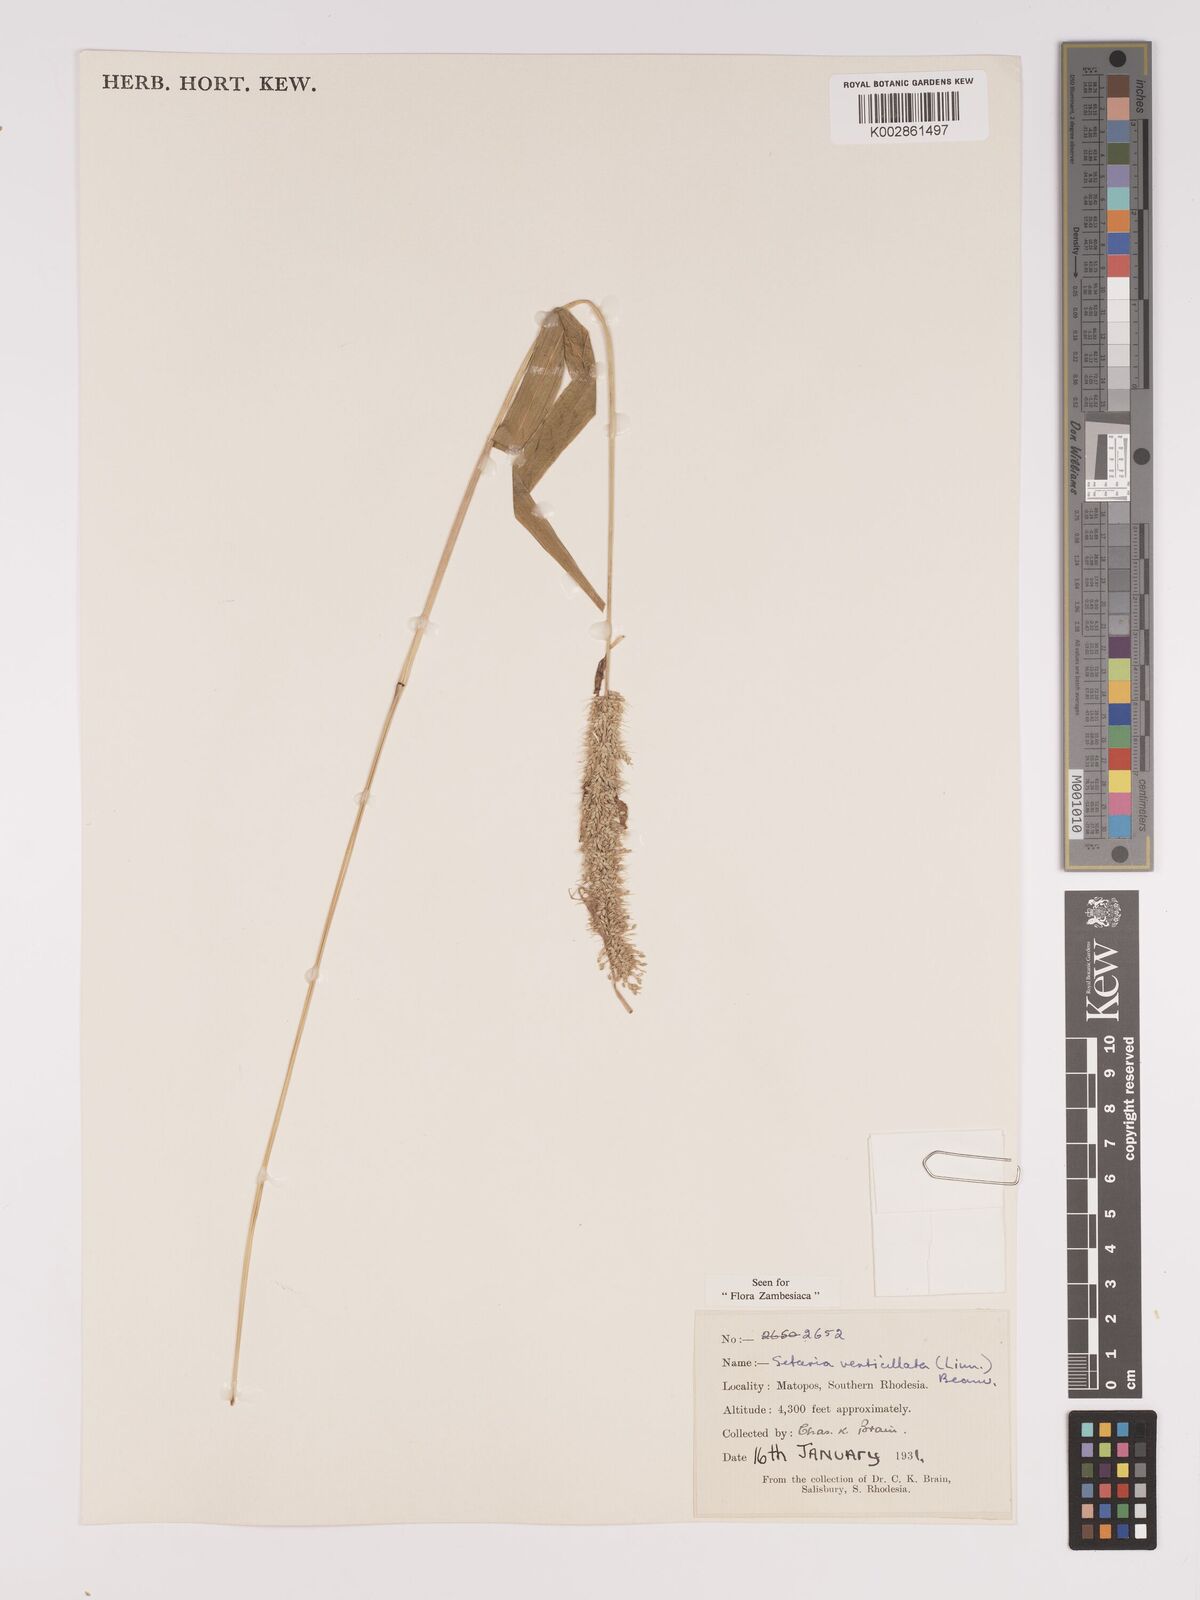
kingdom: Plantae
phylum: Tracheophyta
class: Liliopsida
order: Poales
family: Poaceae
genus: Setaria
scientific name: Setaria verticillata
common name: Hooked bristlegrass
